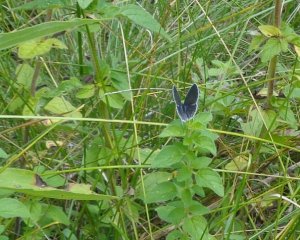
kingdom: Animalia
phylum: Arthropoda
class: Insecta
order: Lepidoptera
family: Lycaenidae
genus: Elkalyce
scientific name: Elkalyce comyntas
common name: Eastern Tailed-Blue
